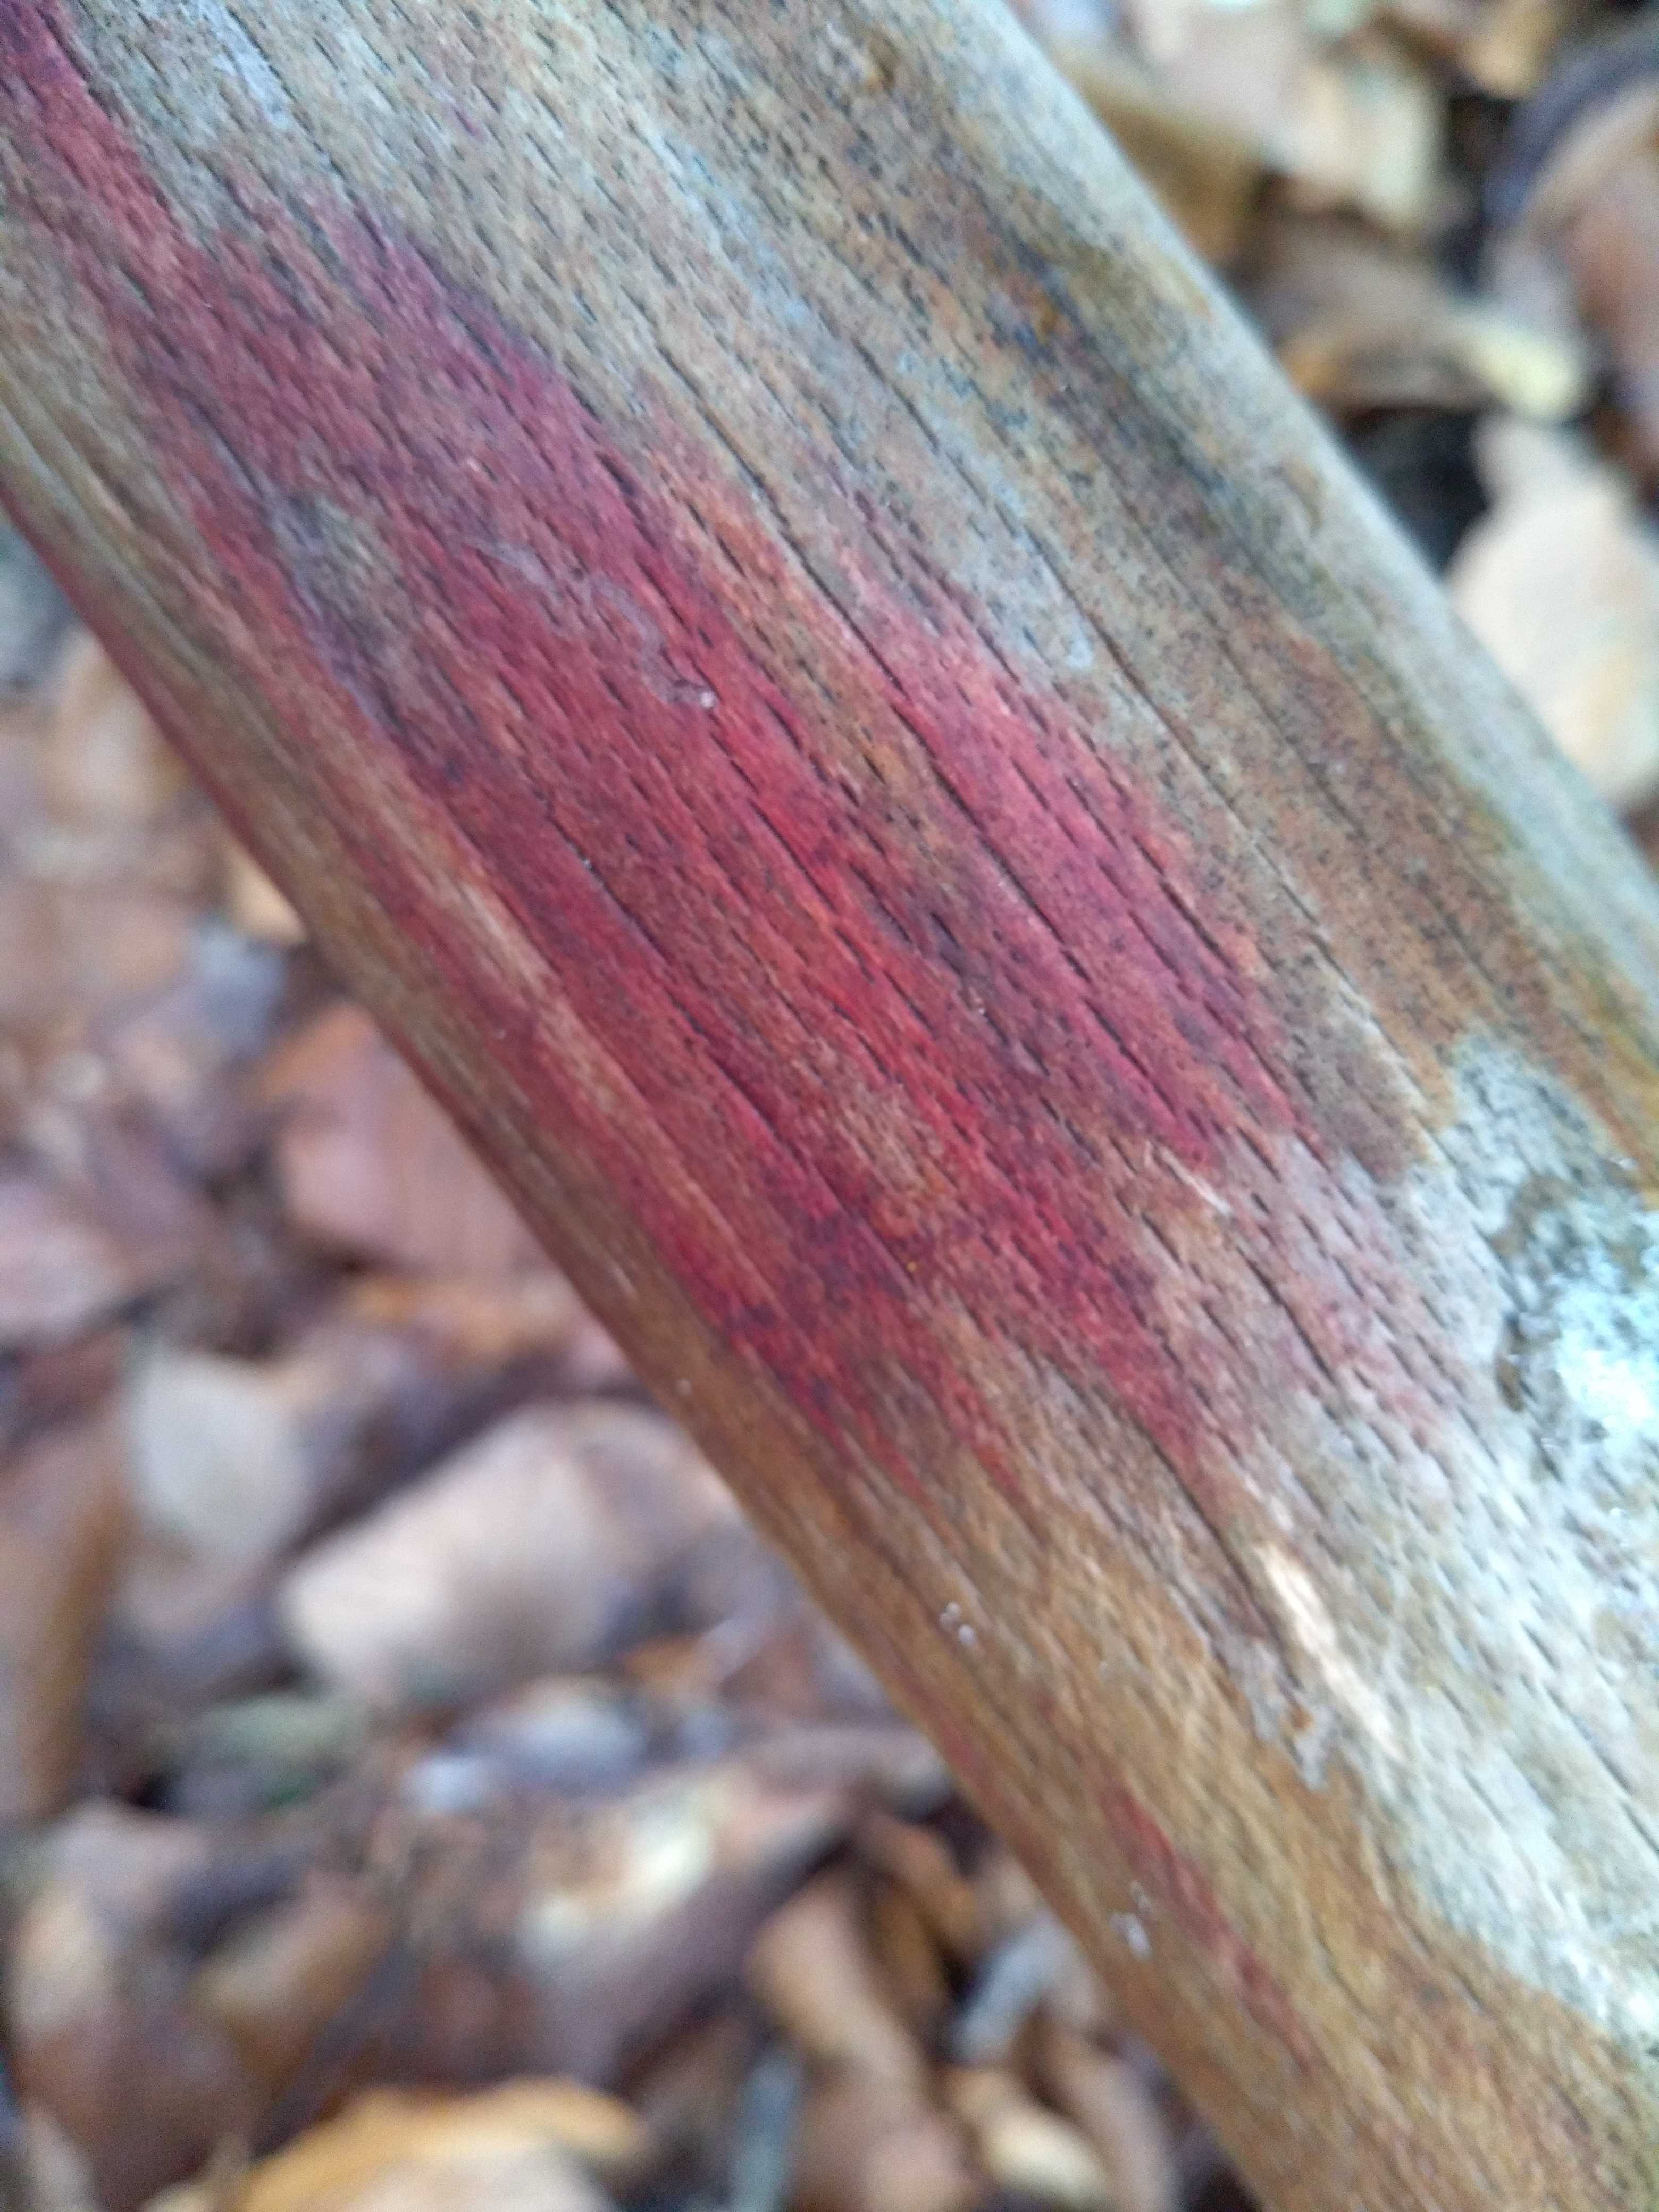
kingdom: Fungi
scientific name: Fungi
